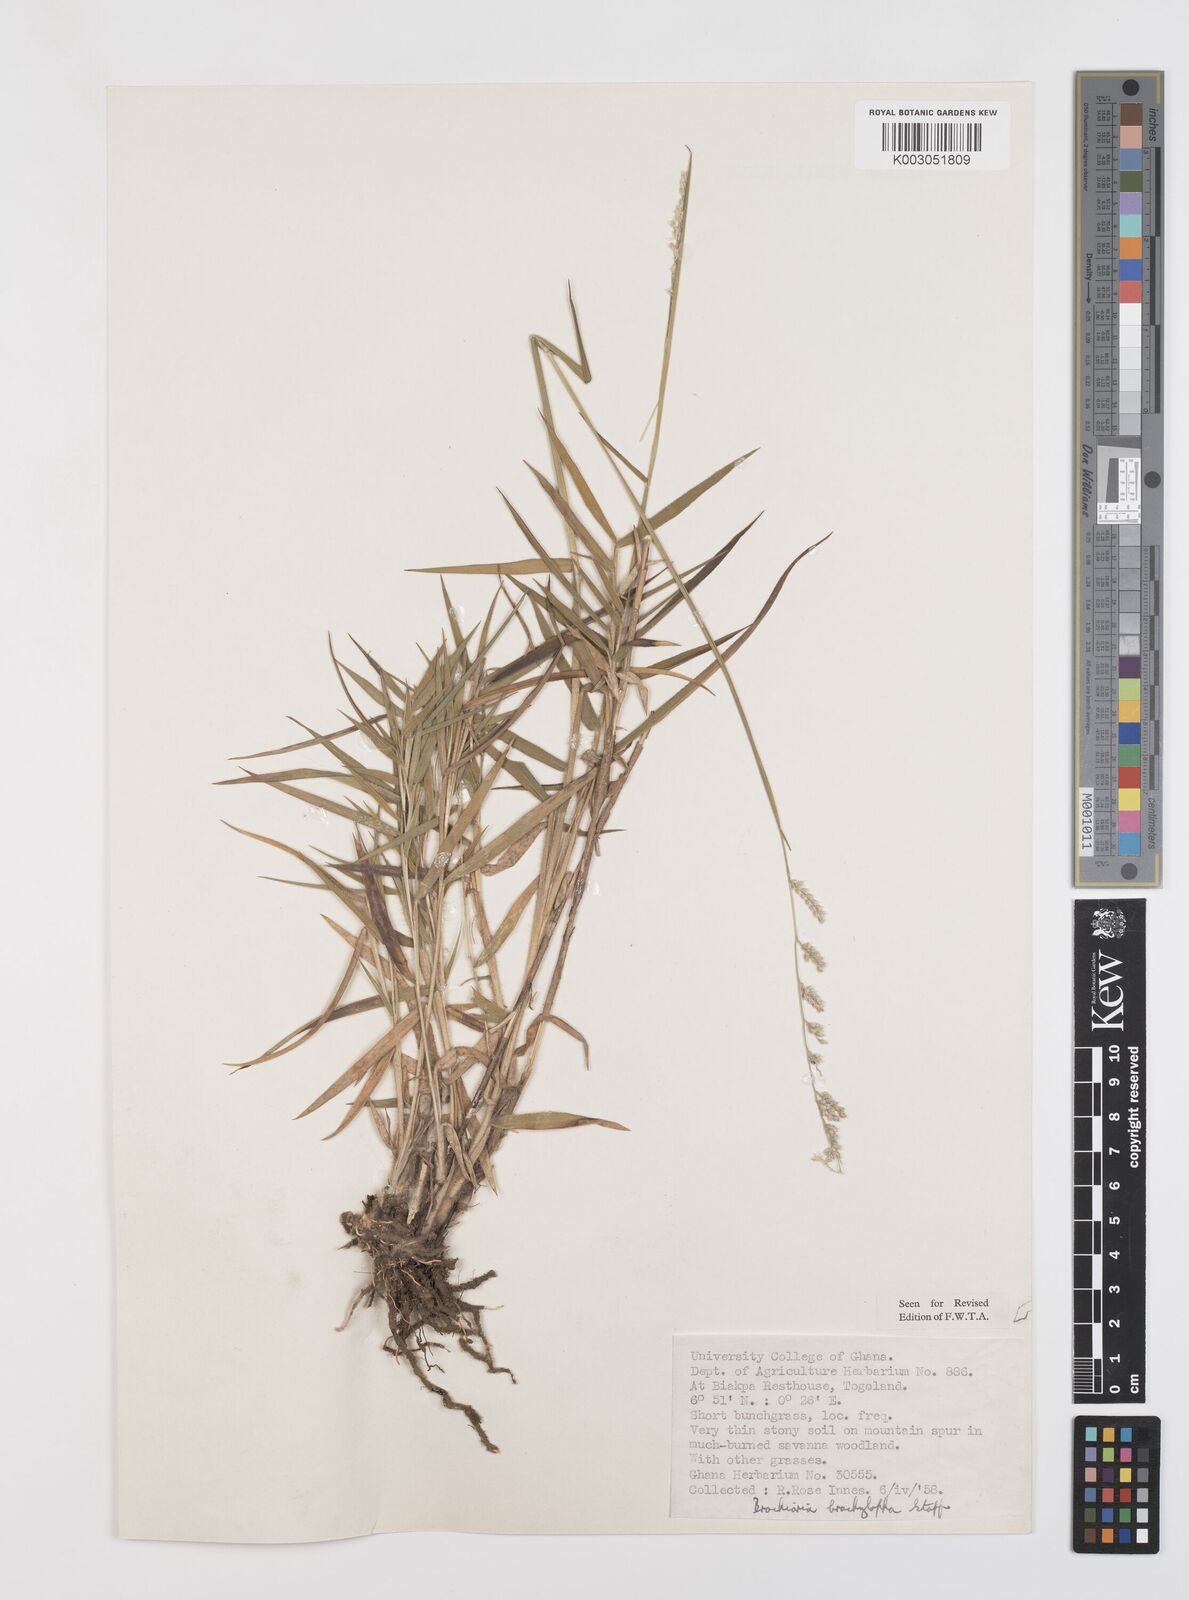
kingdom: Plantae
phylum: Tracheophyta
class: Liliopsida
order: Poales
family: Poaceae
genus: Urochloa
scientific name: Urochloa serrata
